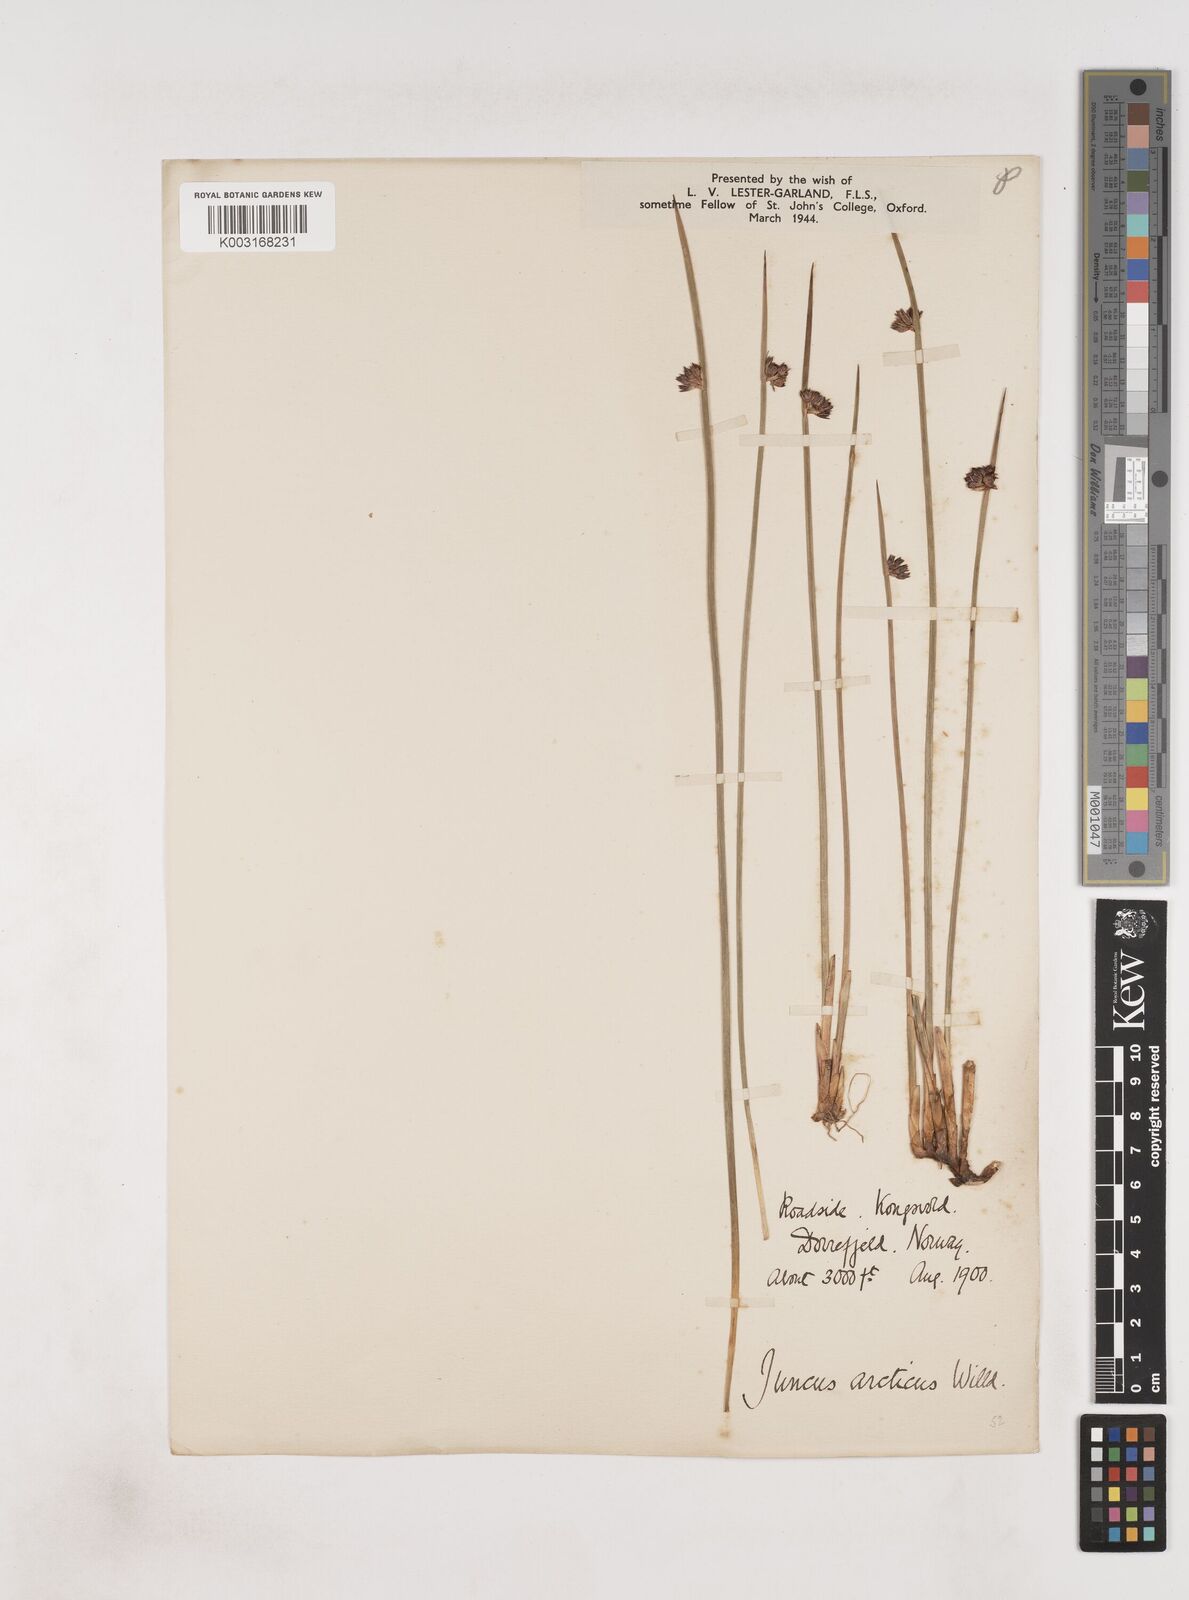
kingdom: Plantae
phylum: Tracheophyta
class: Liliopsida
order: Poales
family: Juncaceae
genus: Juncus
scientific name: Juncus arcticus
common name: Arctic rush
